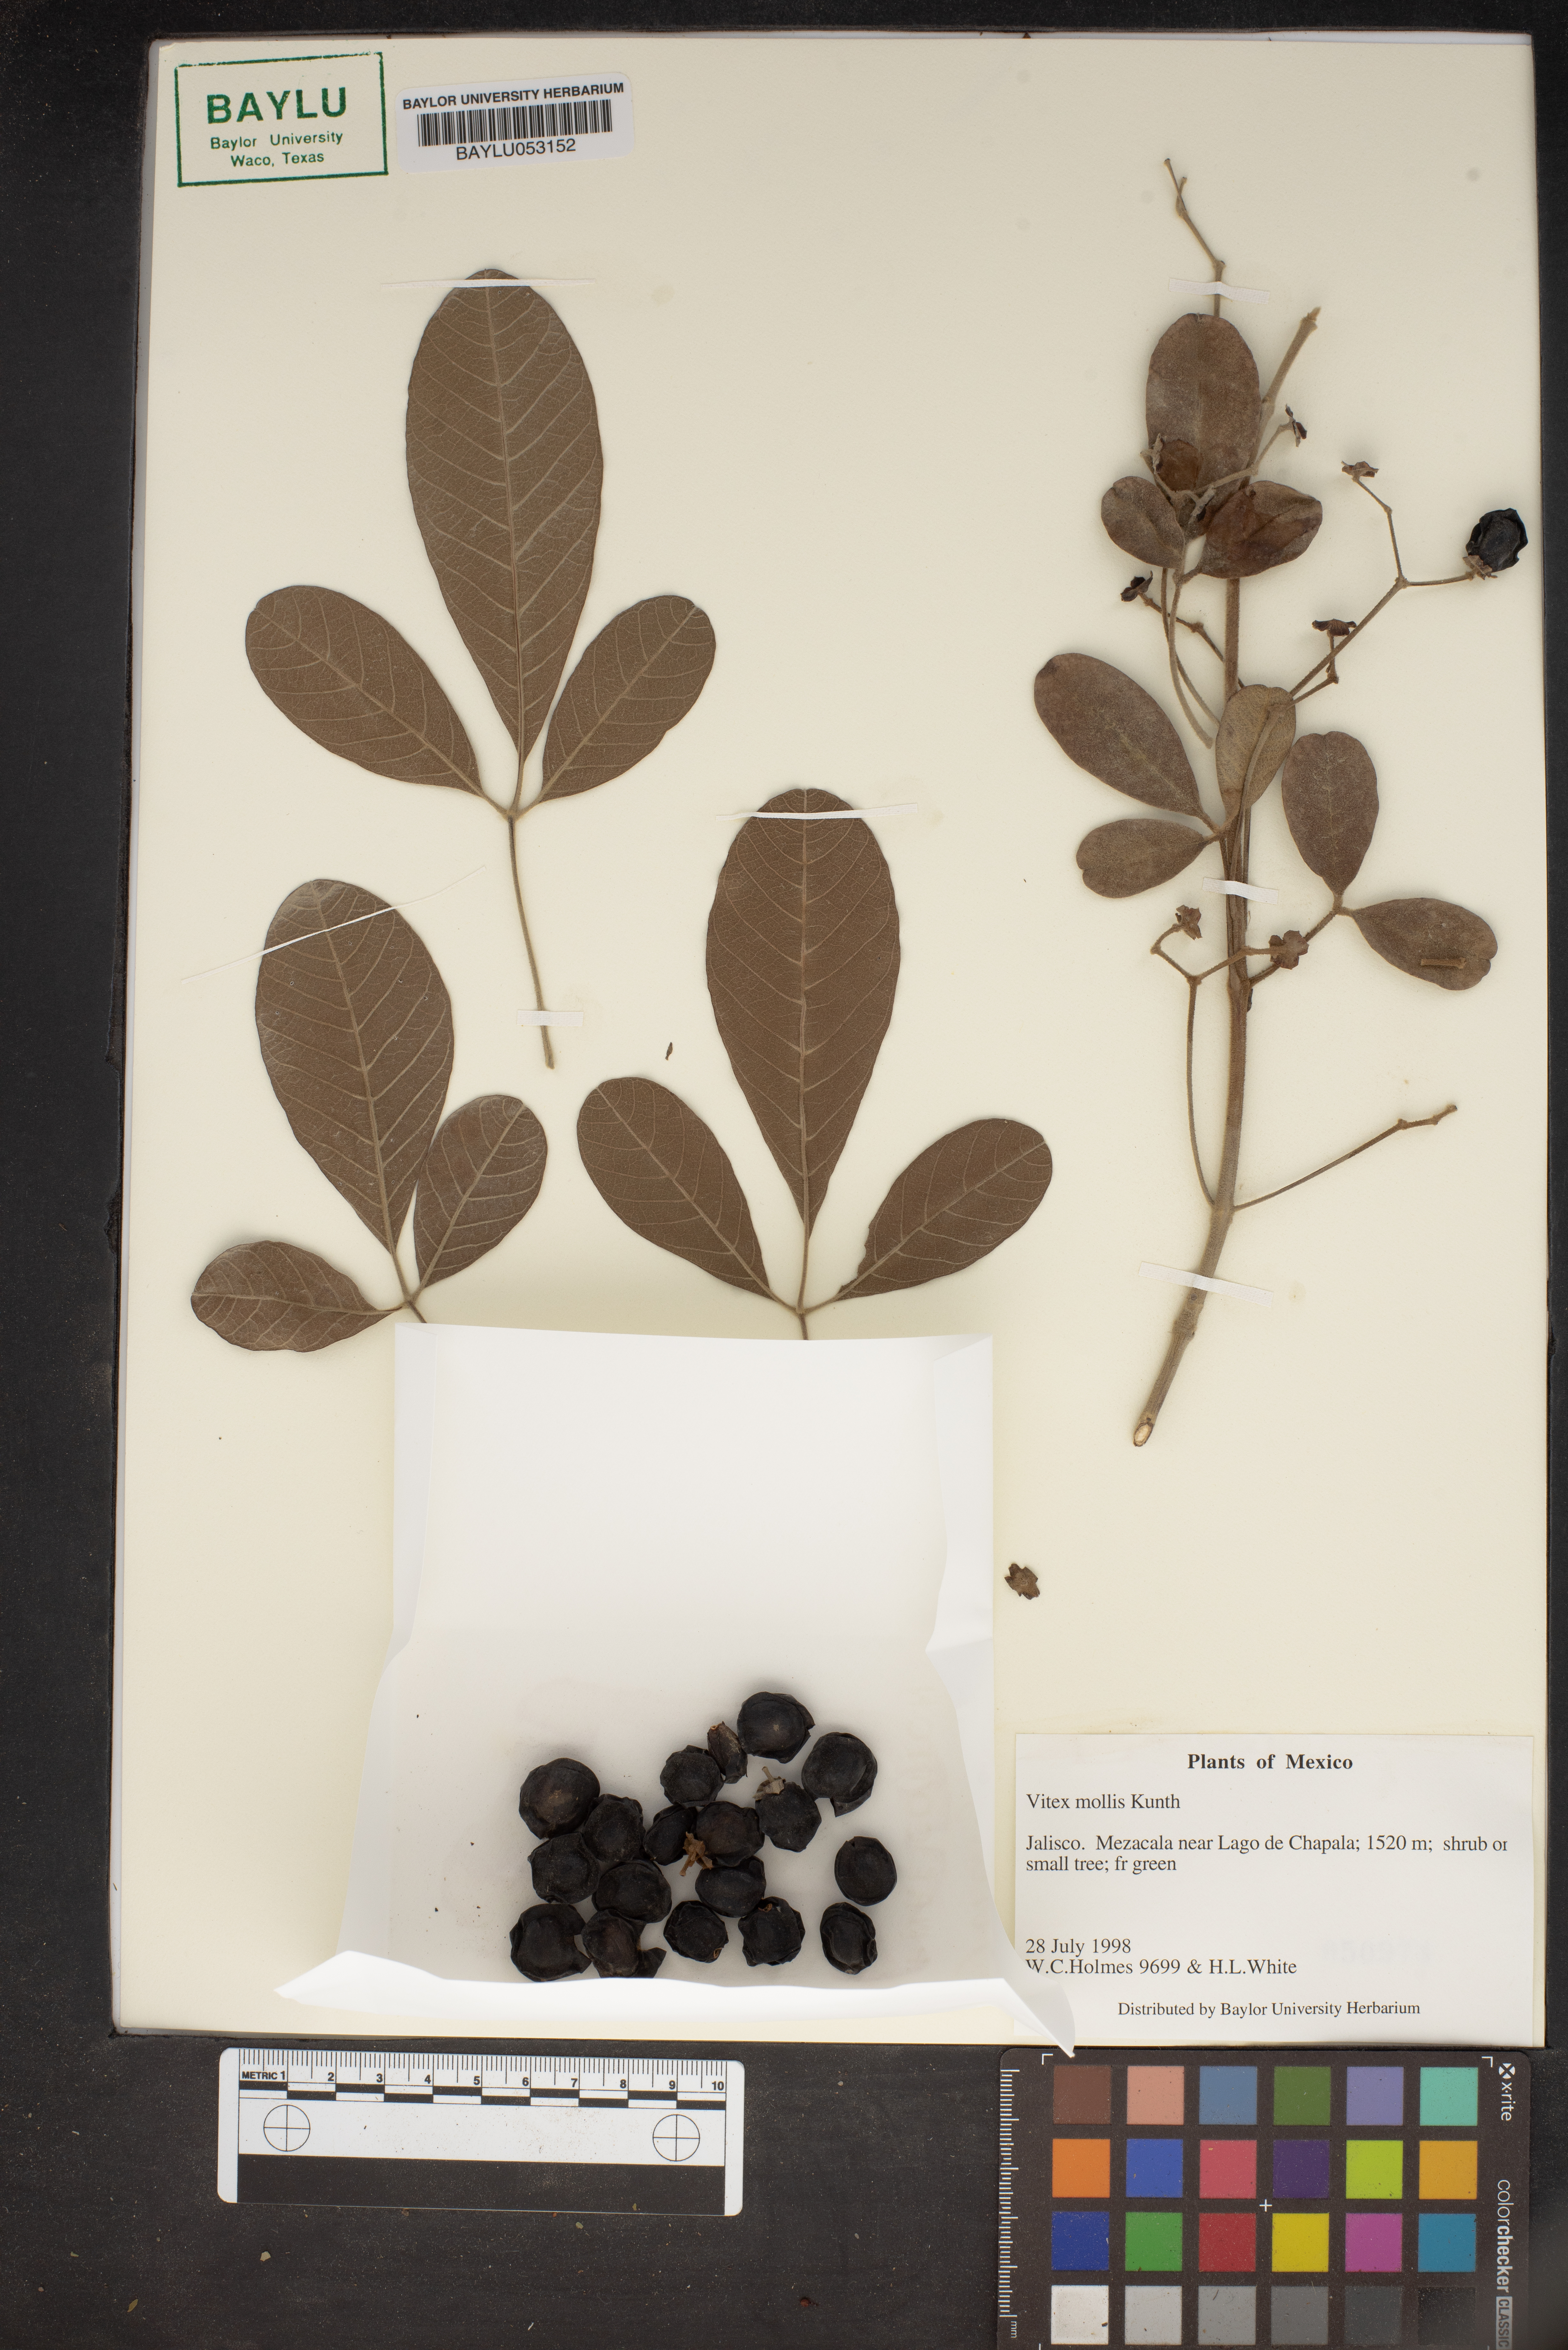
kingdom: Plantae
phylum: Tracheophyta
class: Magnoliopsida
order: Lamiales
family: Lamiaceae
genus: Vitex
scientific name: Vitex mollis
